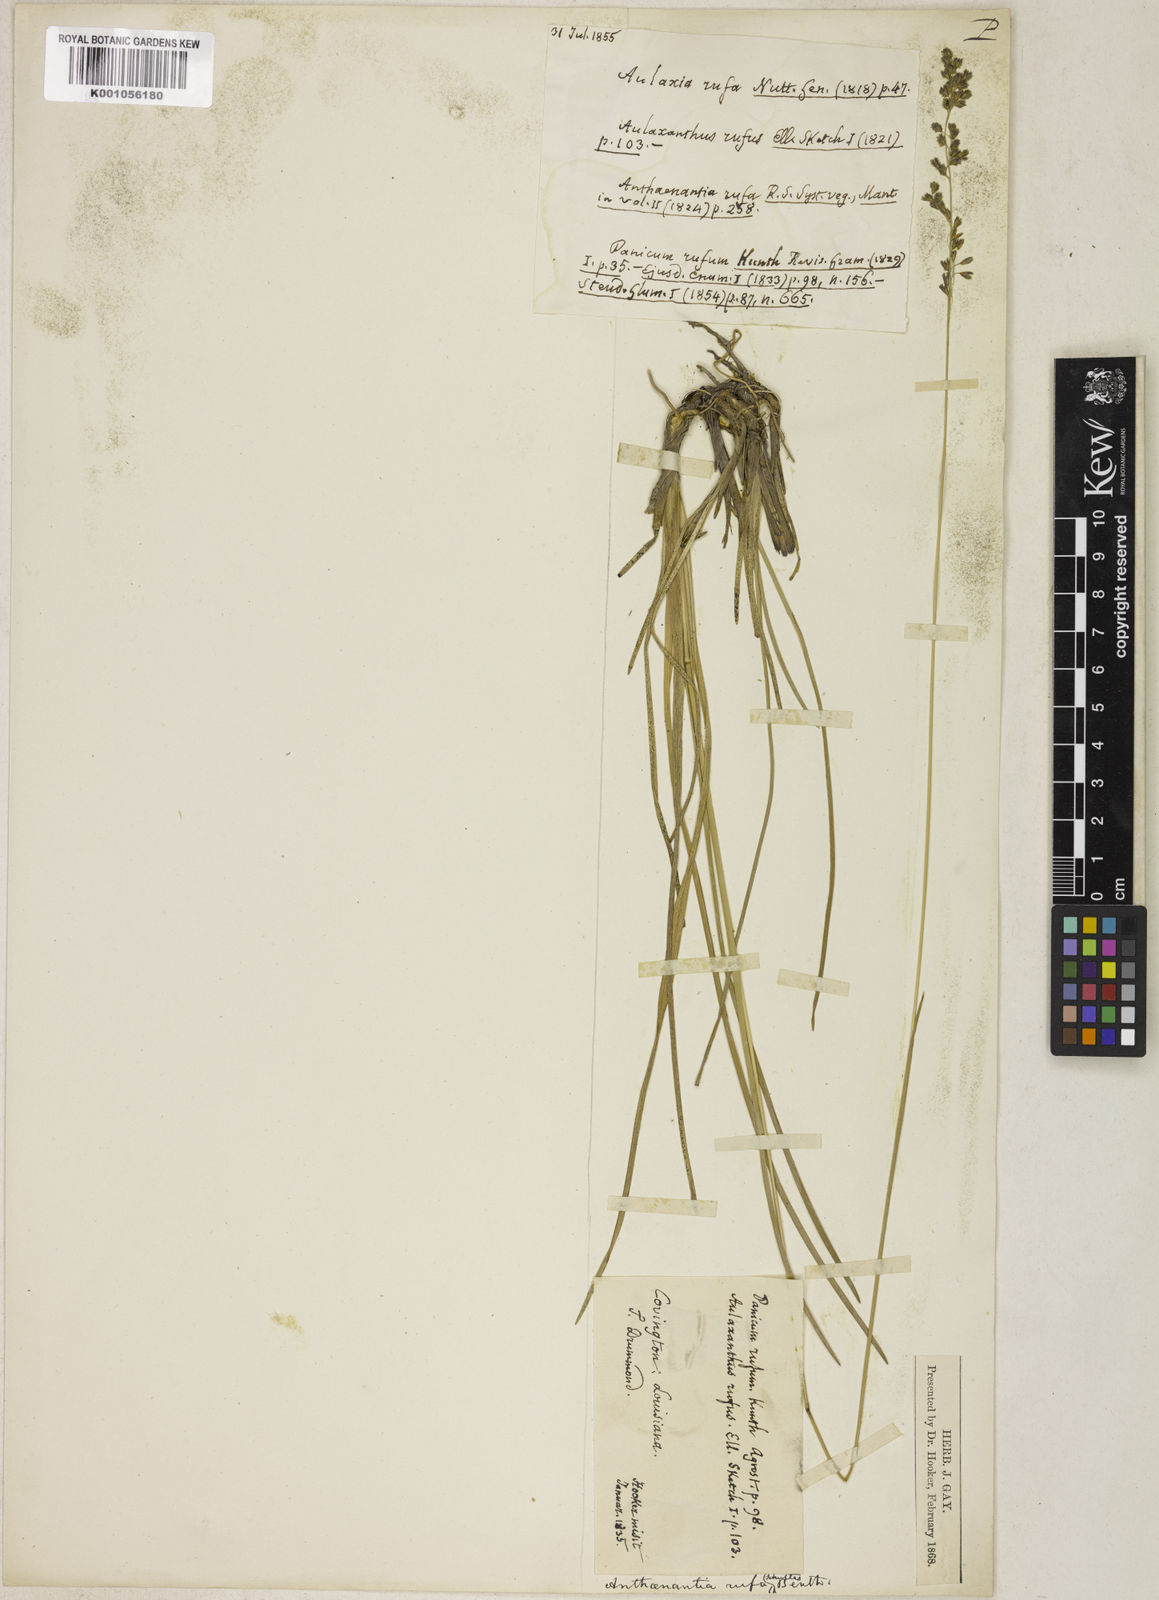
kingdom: Plantae
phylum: Tracheophyta
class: Liliopsida
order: Poales
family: Poaceae
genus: Anthenantia
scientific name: Anthenantia rufa
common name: Purple silkyscale
